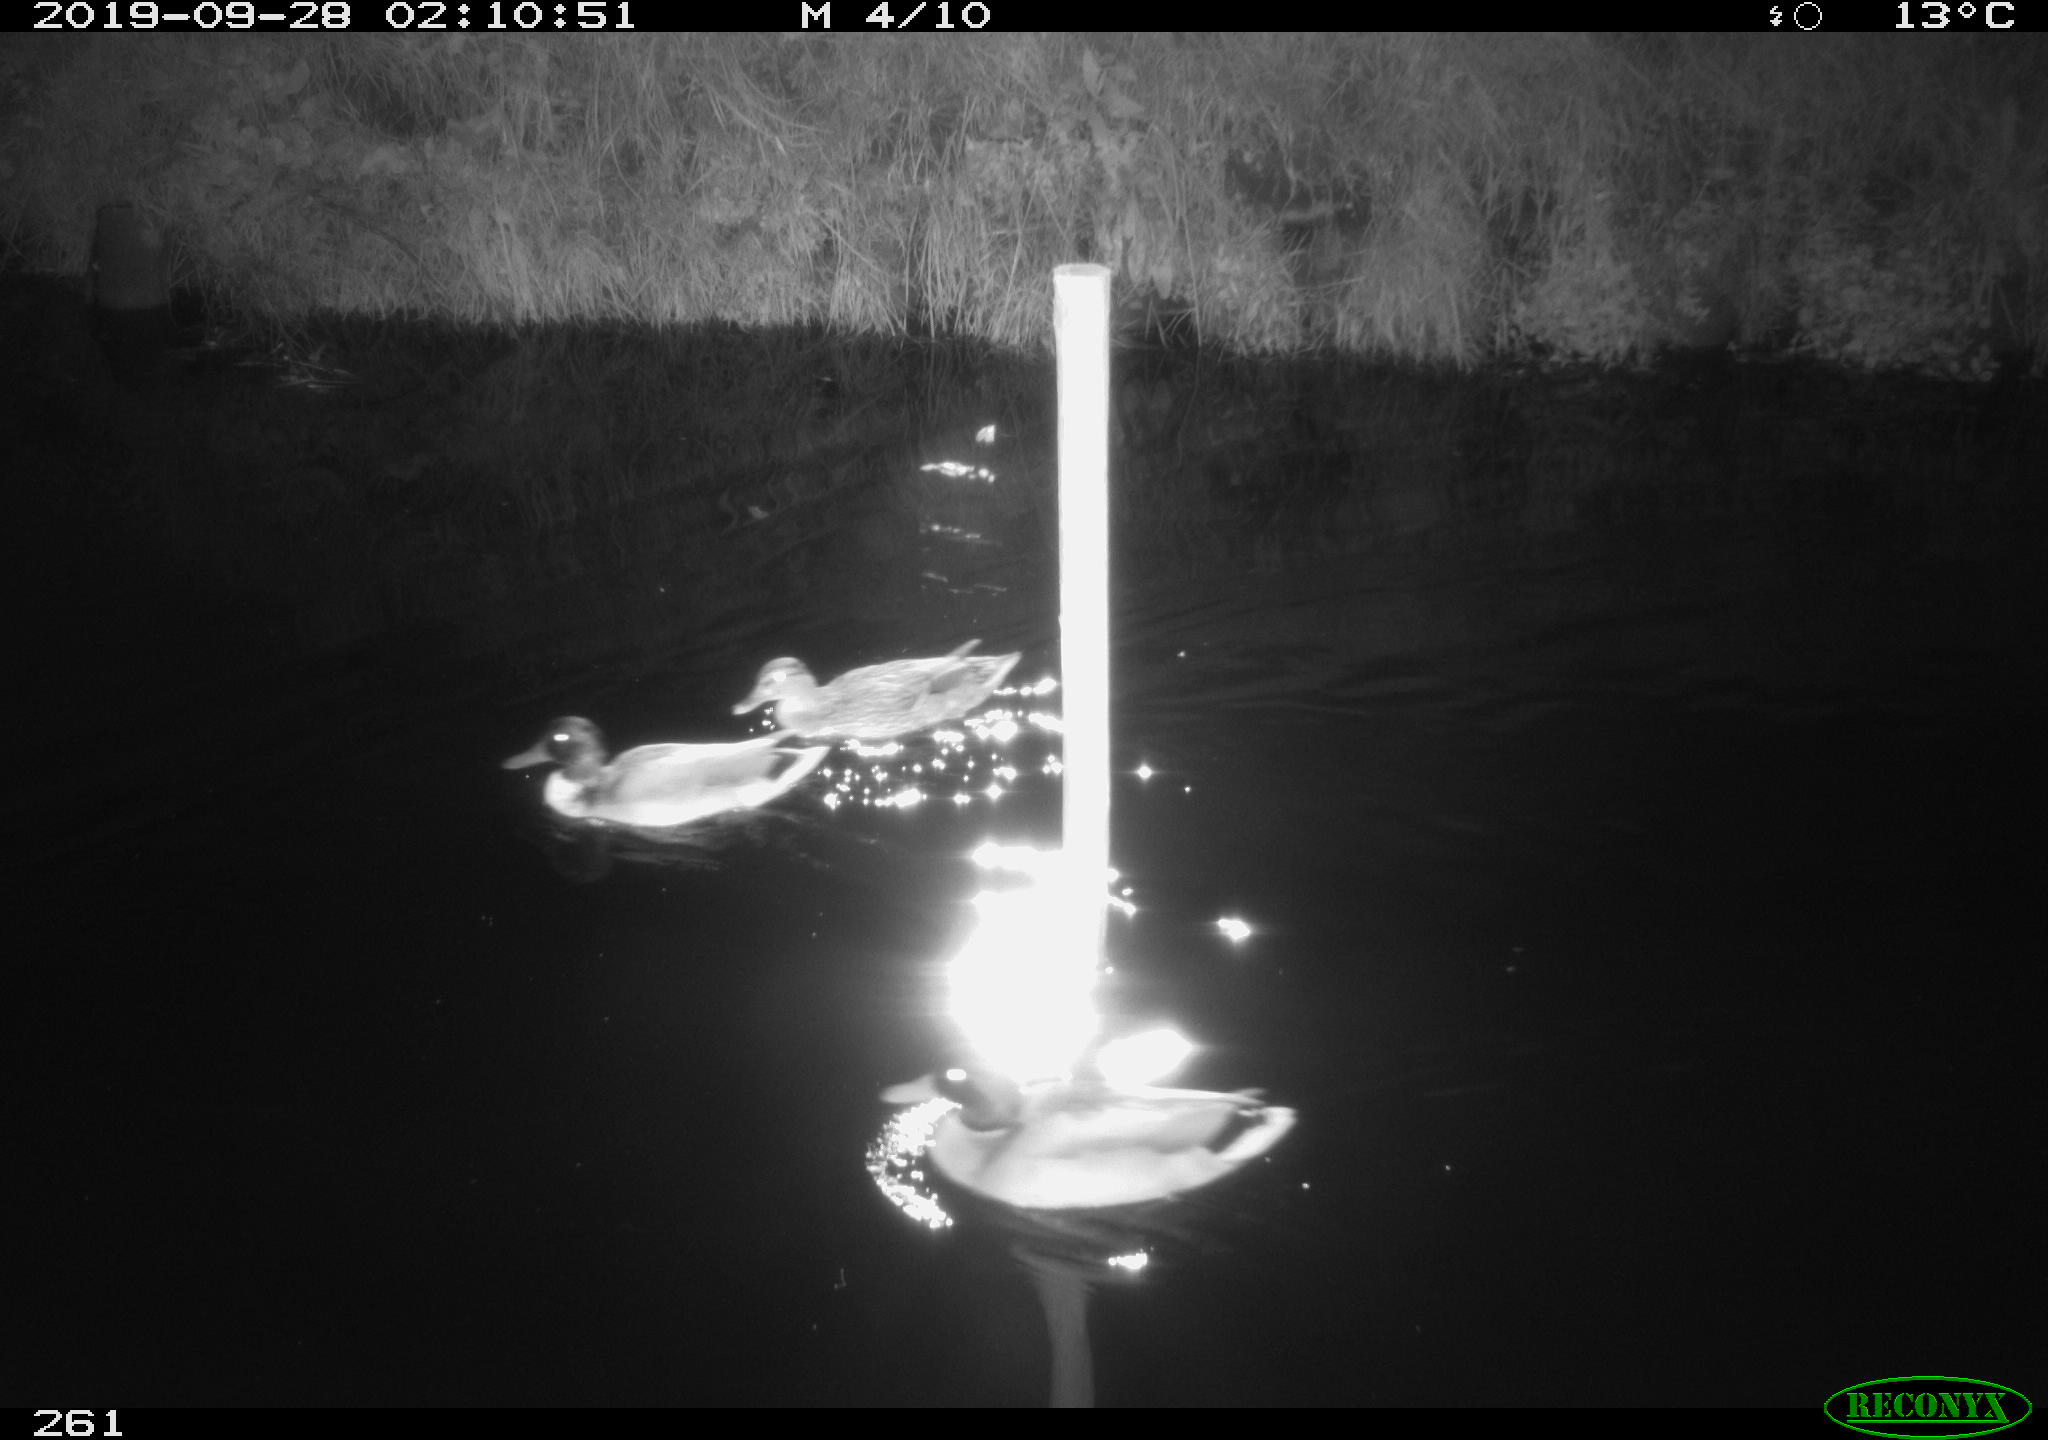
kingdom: Animalia
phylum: Chordata
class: Aves
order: Anseriformes
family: Anatidae
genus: Anas
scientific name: Anas platyrhynchos
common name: Mallard
